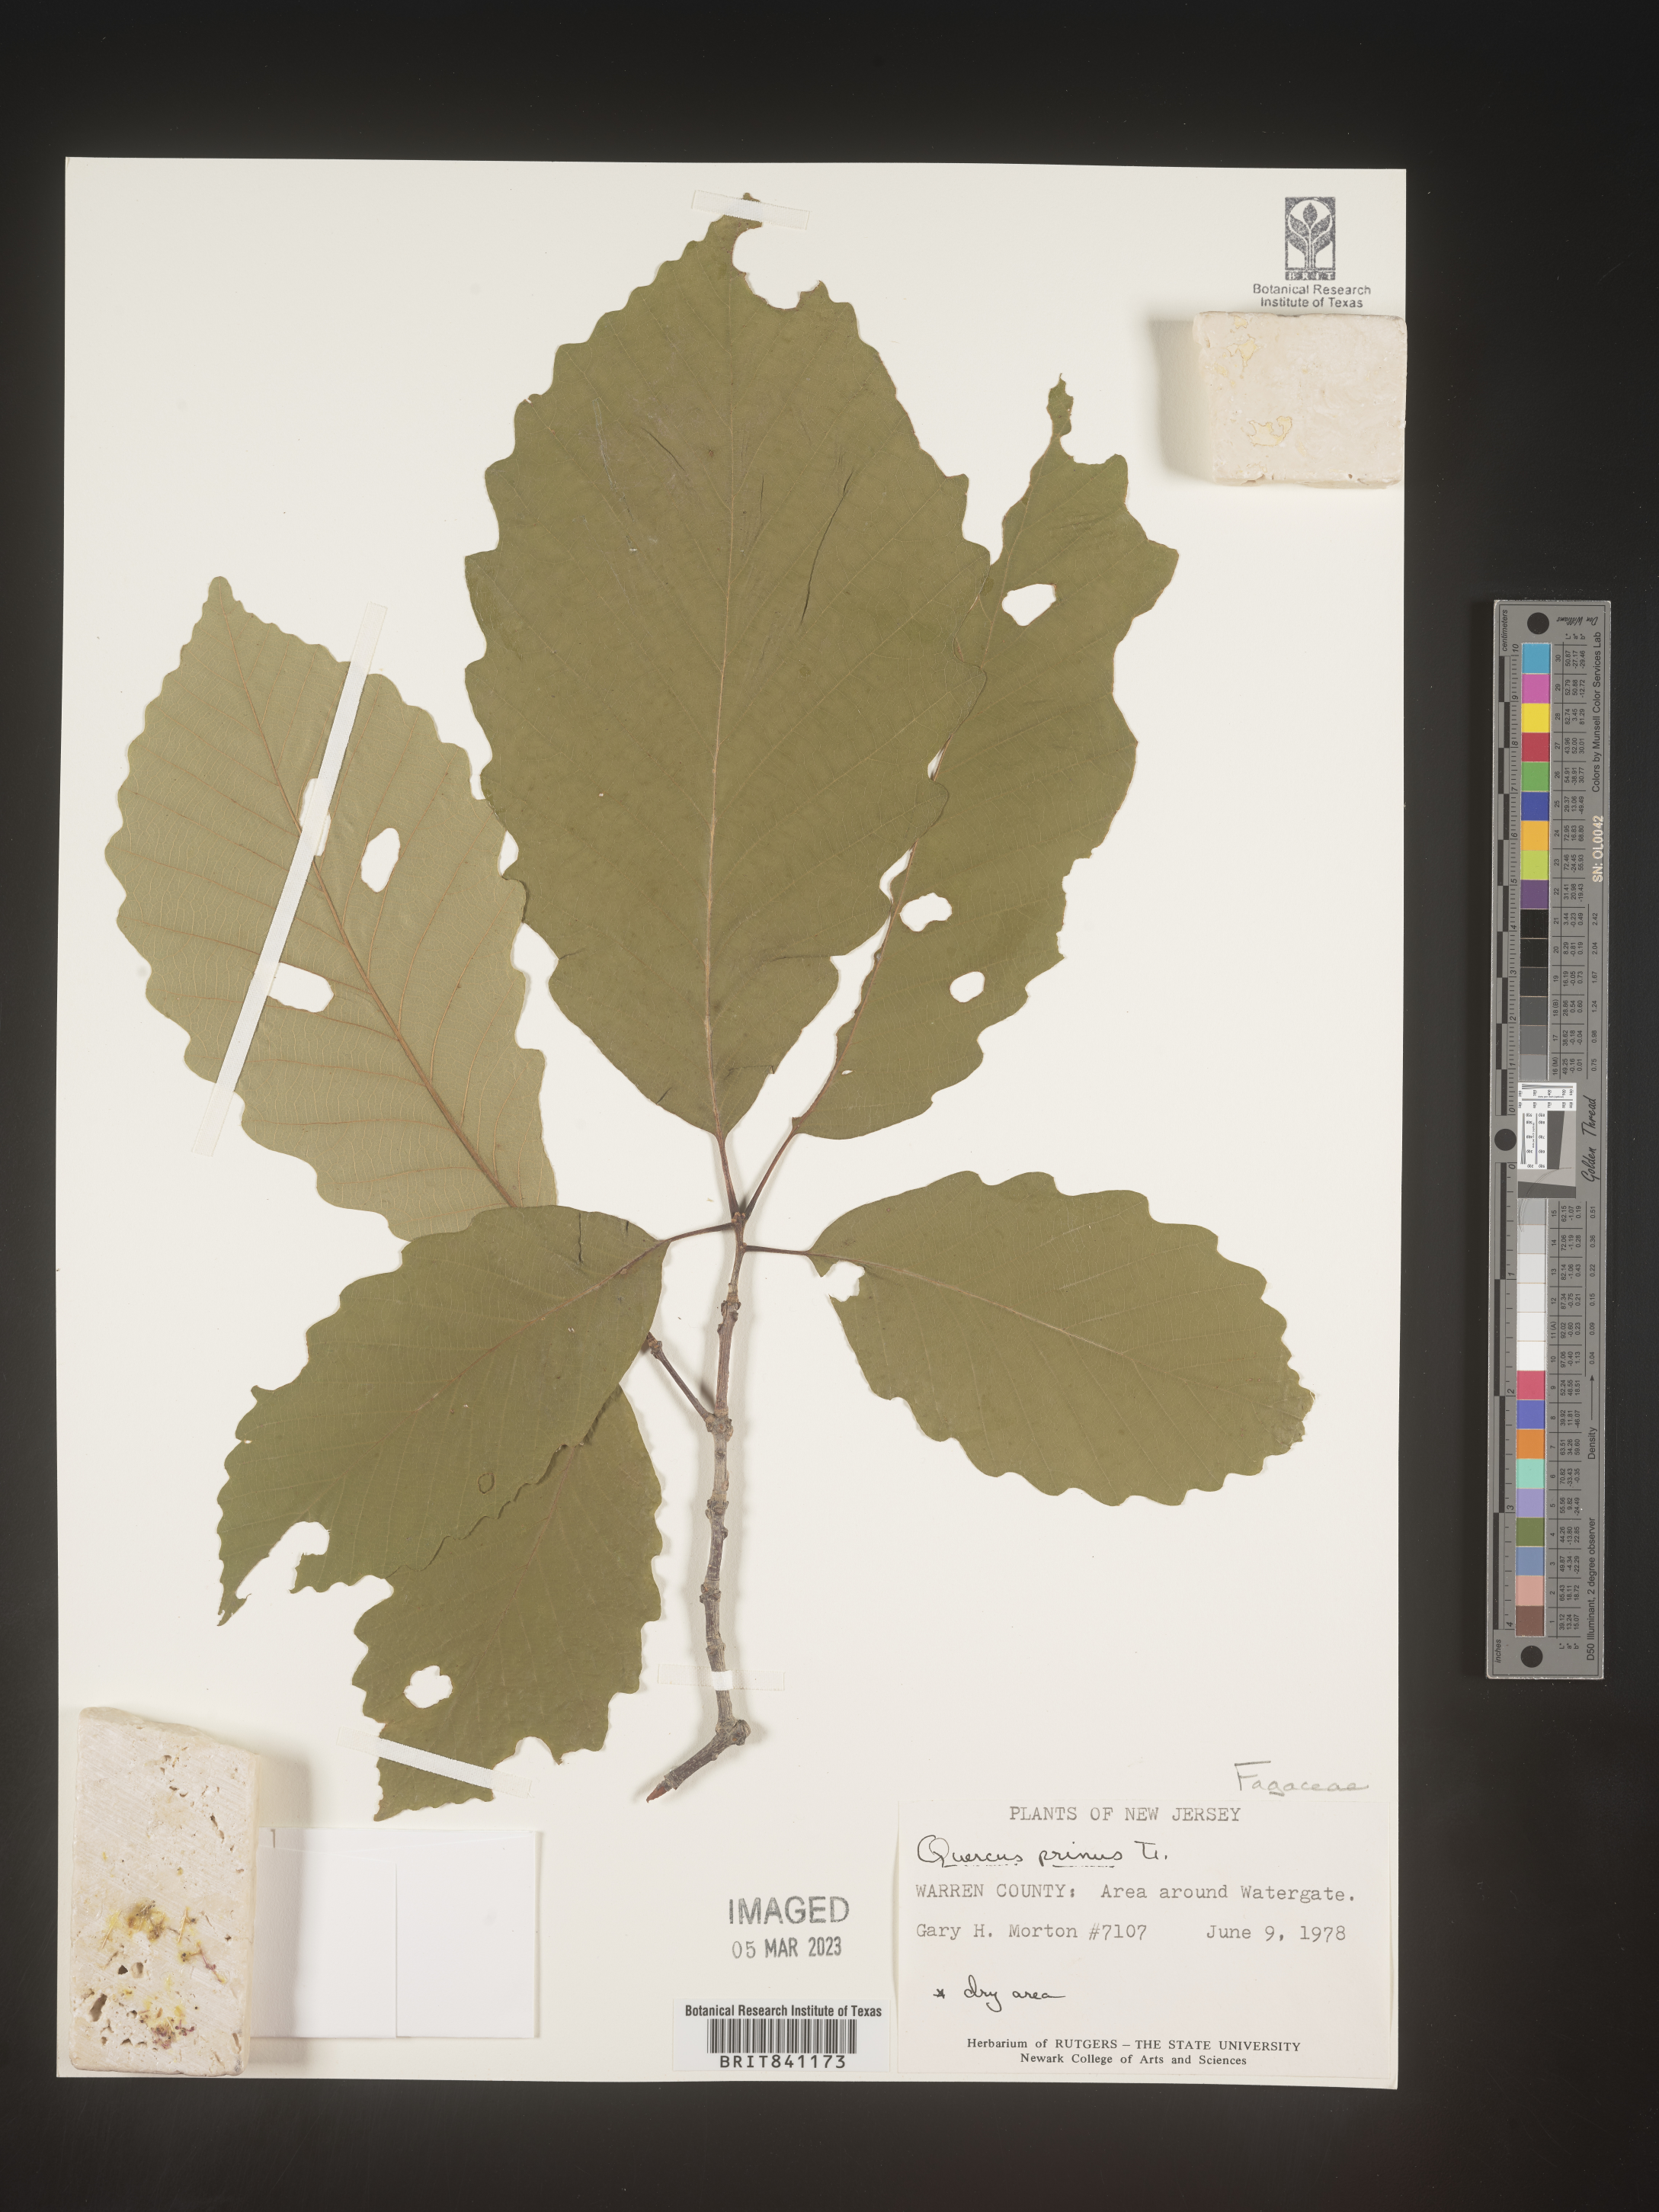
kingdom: Plantae
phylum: Tracheophyta
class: Magnoliopsida
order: Fagales
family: Fagaceae
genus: Quercus
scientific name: Quercus michauxii
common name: Swamp chestnut oak
